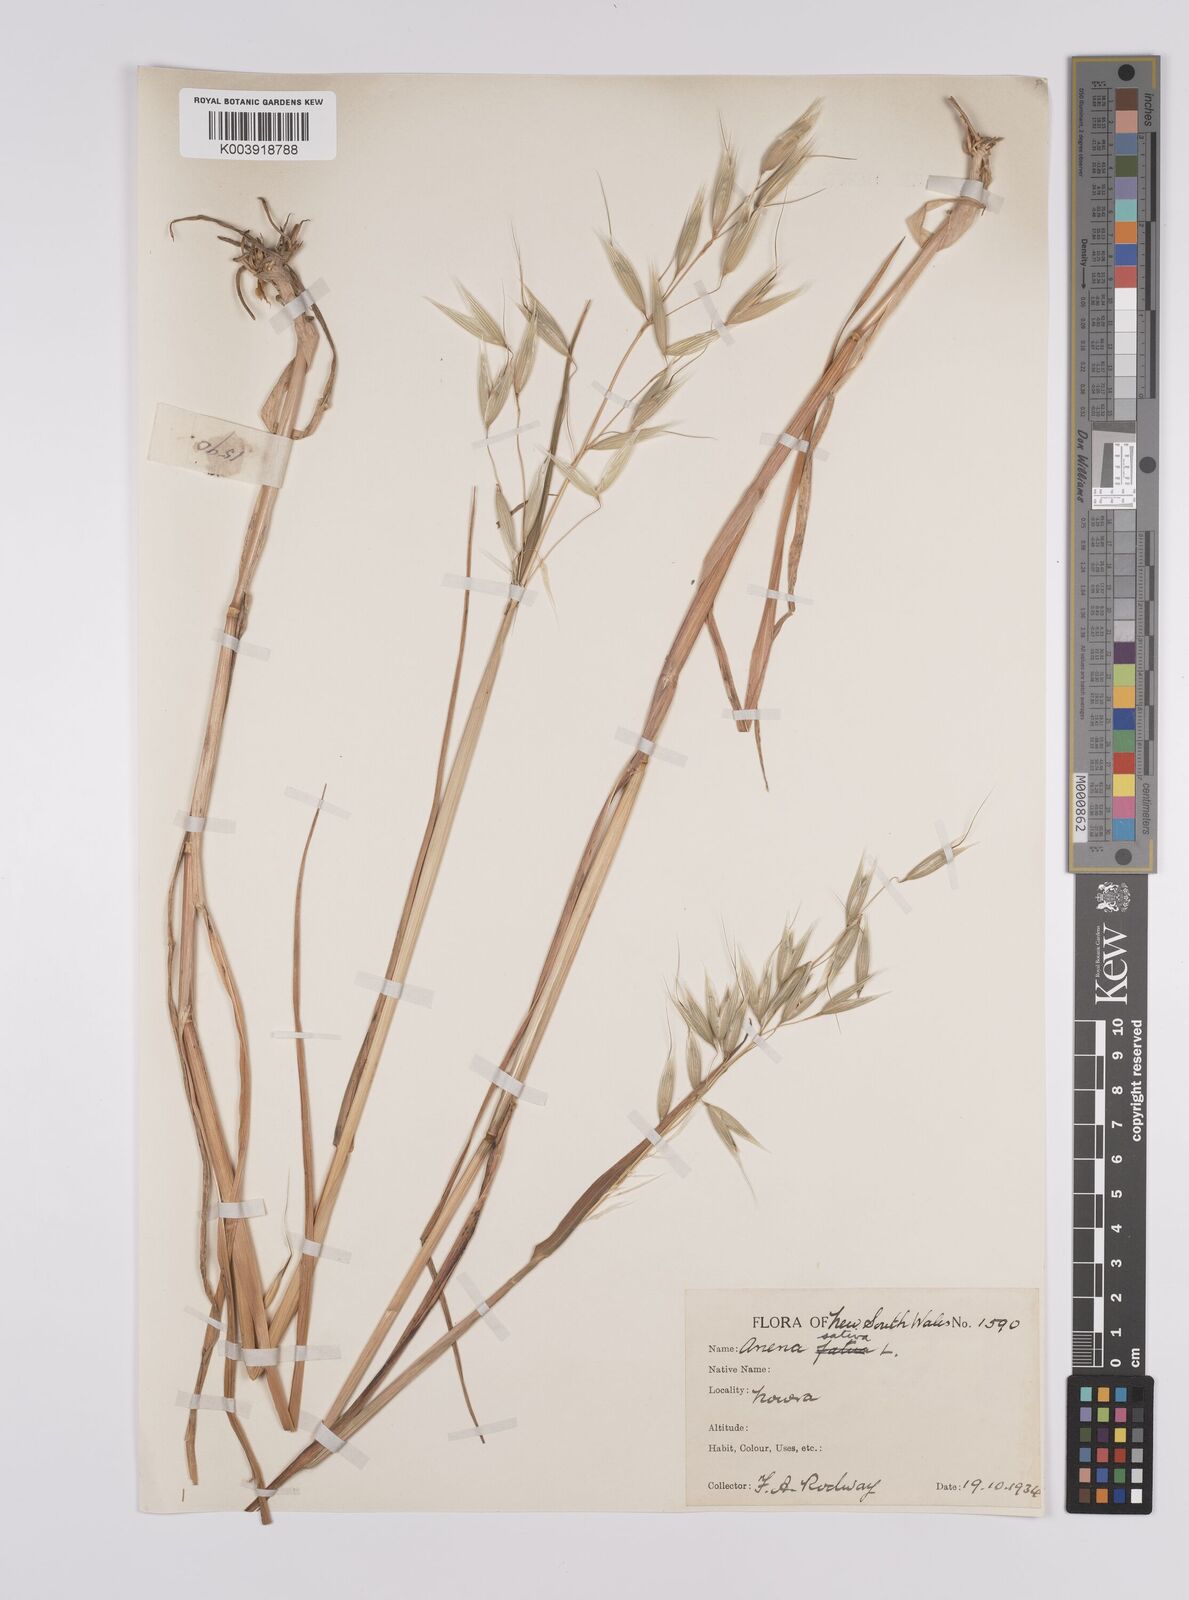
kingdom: Plantae
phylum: Tracheophyta
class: Liliopsida
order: Poales
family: Poaceae
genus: Avena
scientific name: Avena sativa
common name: Oat
